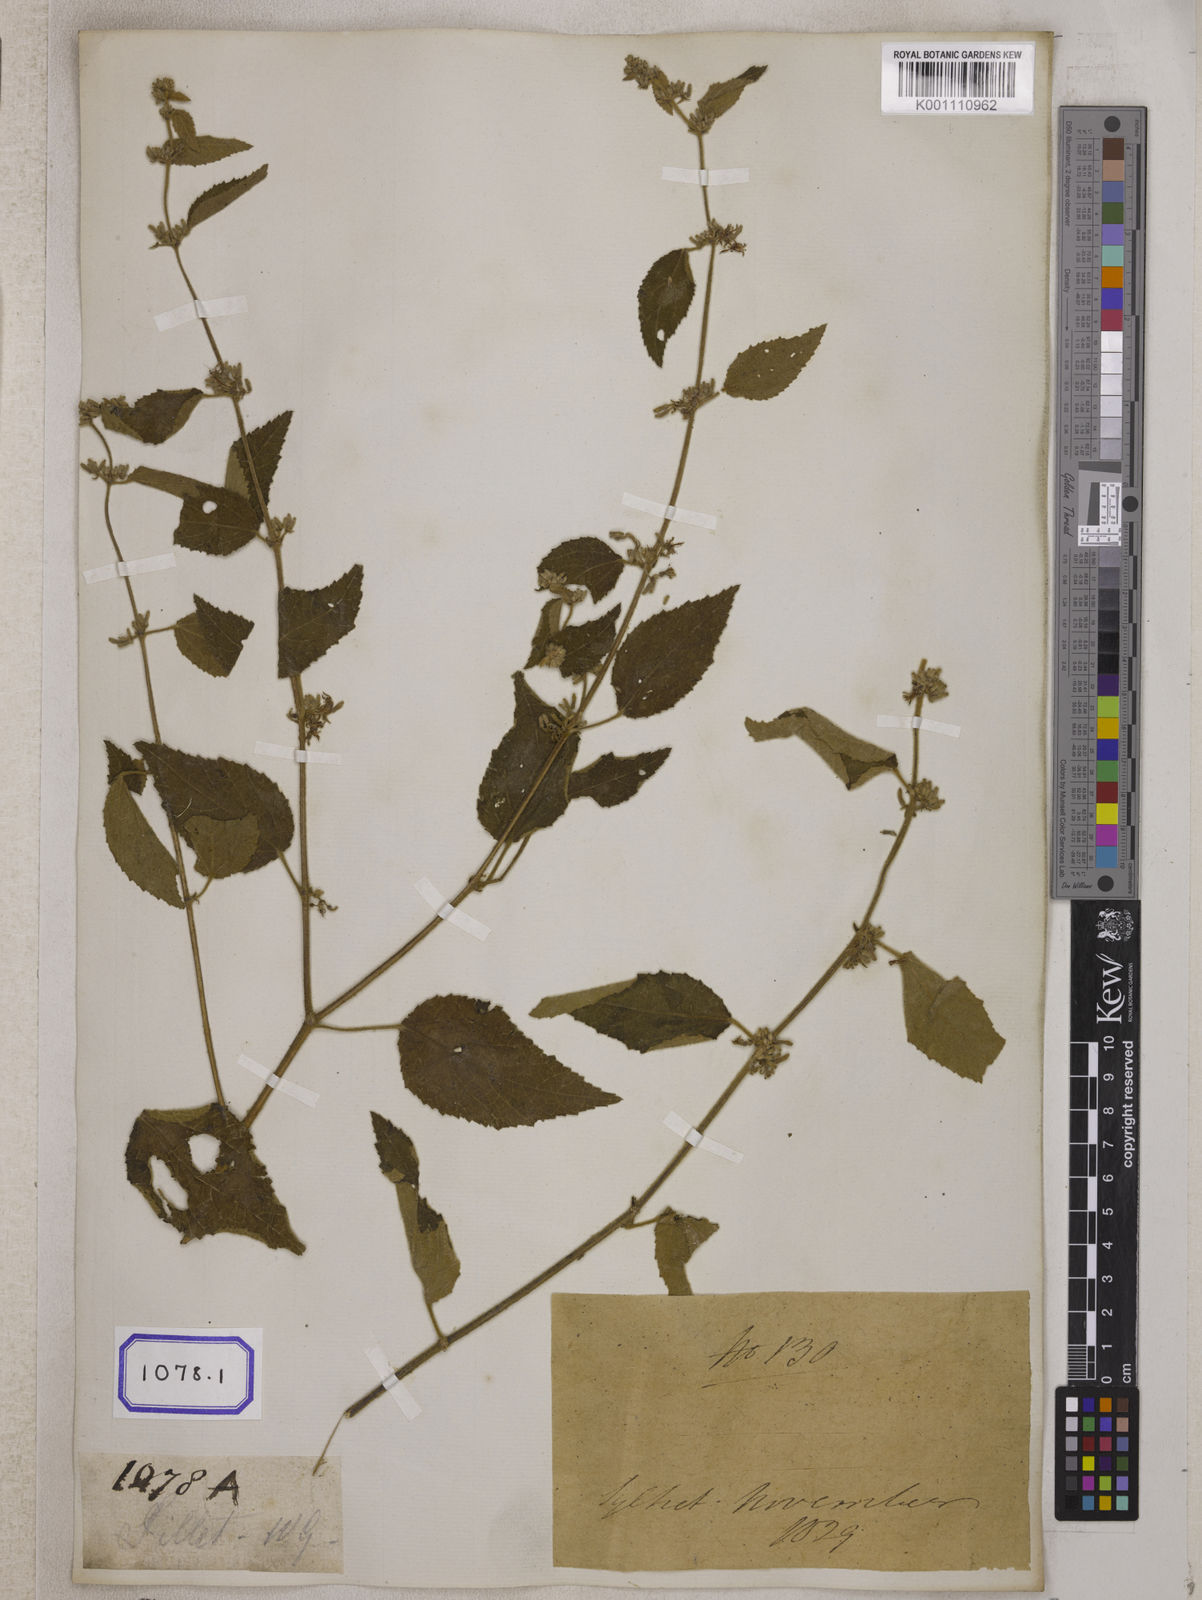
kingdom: Plantae
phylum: Tracheophyta
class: Magnoliopsida
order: Malvales
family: Malvaceae
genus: Triumfetta
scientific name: Triumfetta
